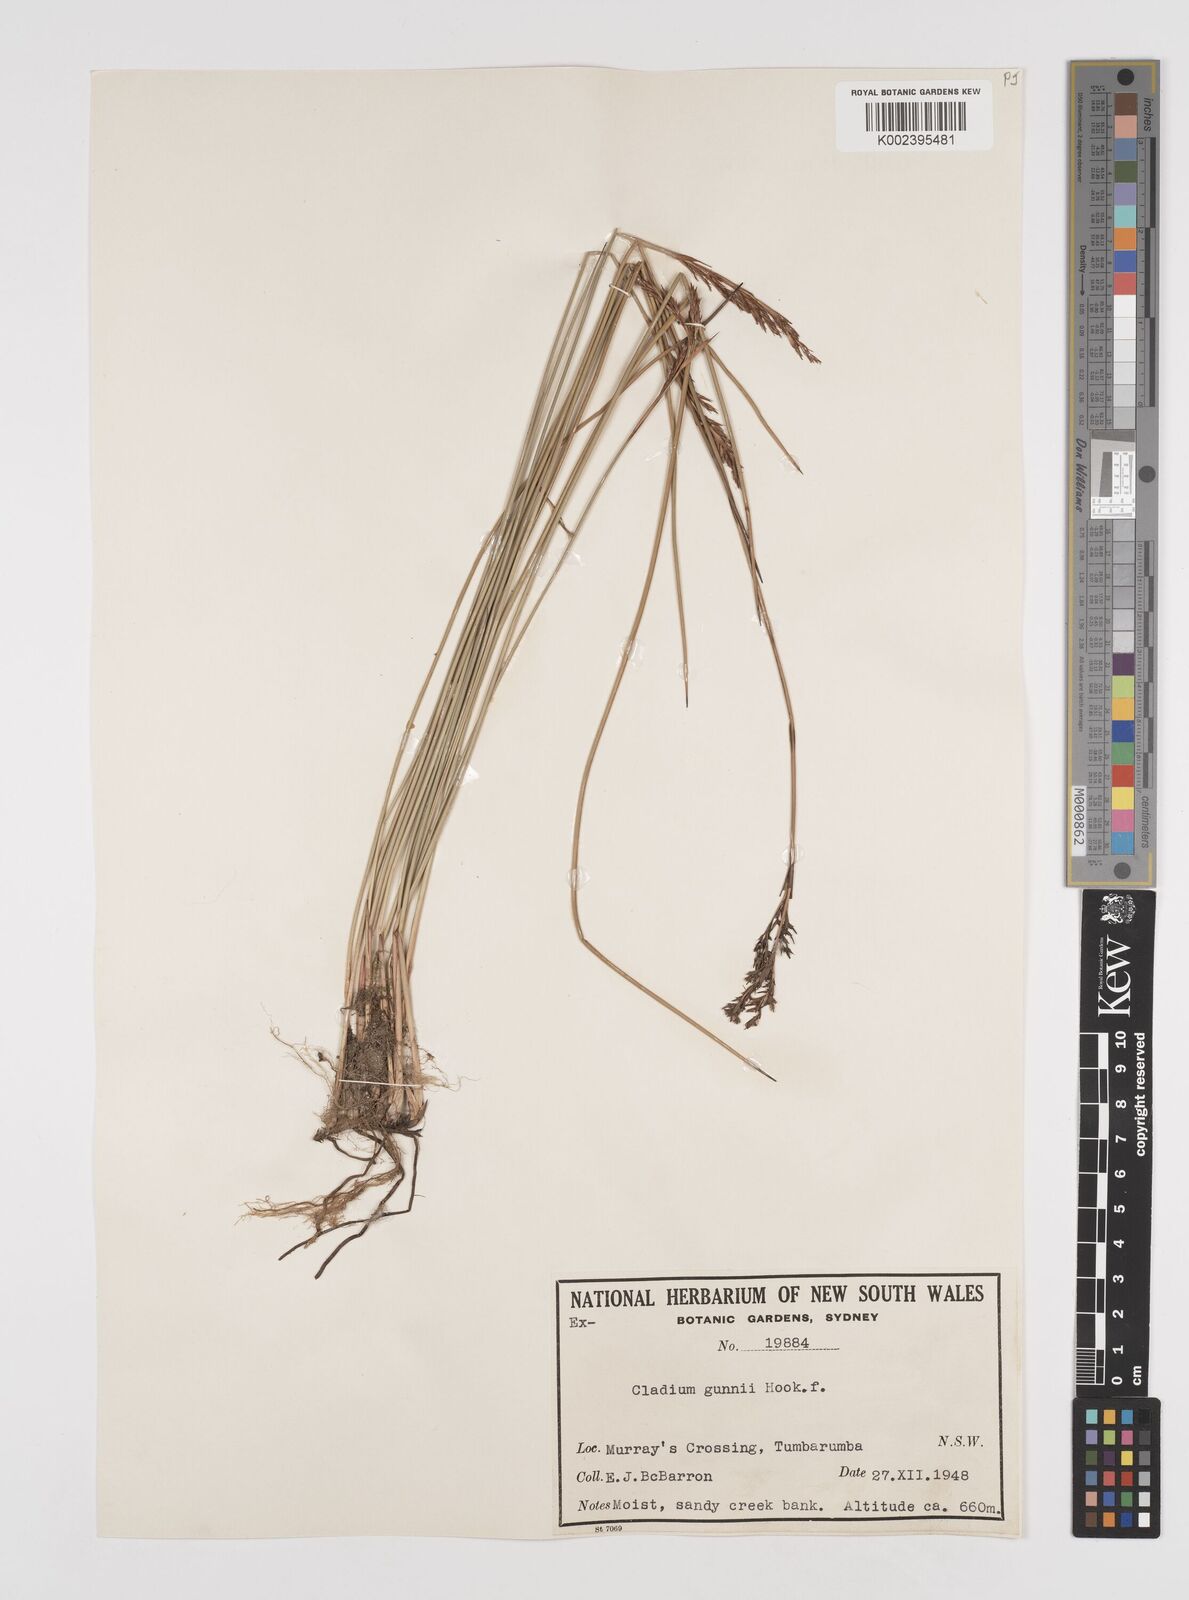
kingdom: Plantae
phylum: Tracheophyta
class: Liliopsida
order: Poales
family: Cyperaceae
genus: Machaerina
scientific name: Machaerina gunnii
